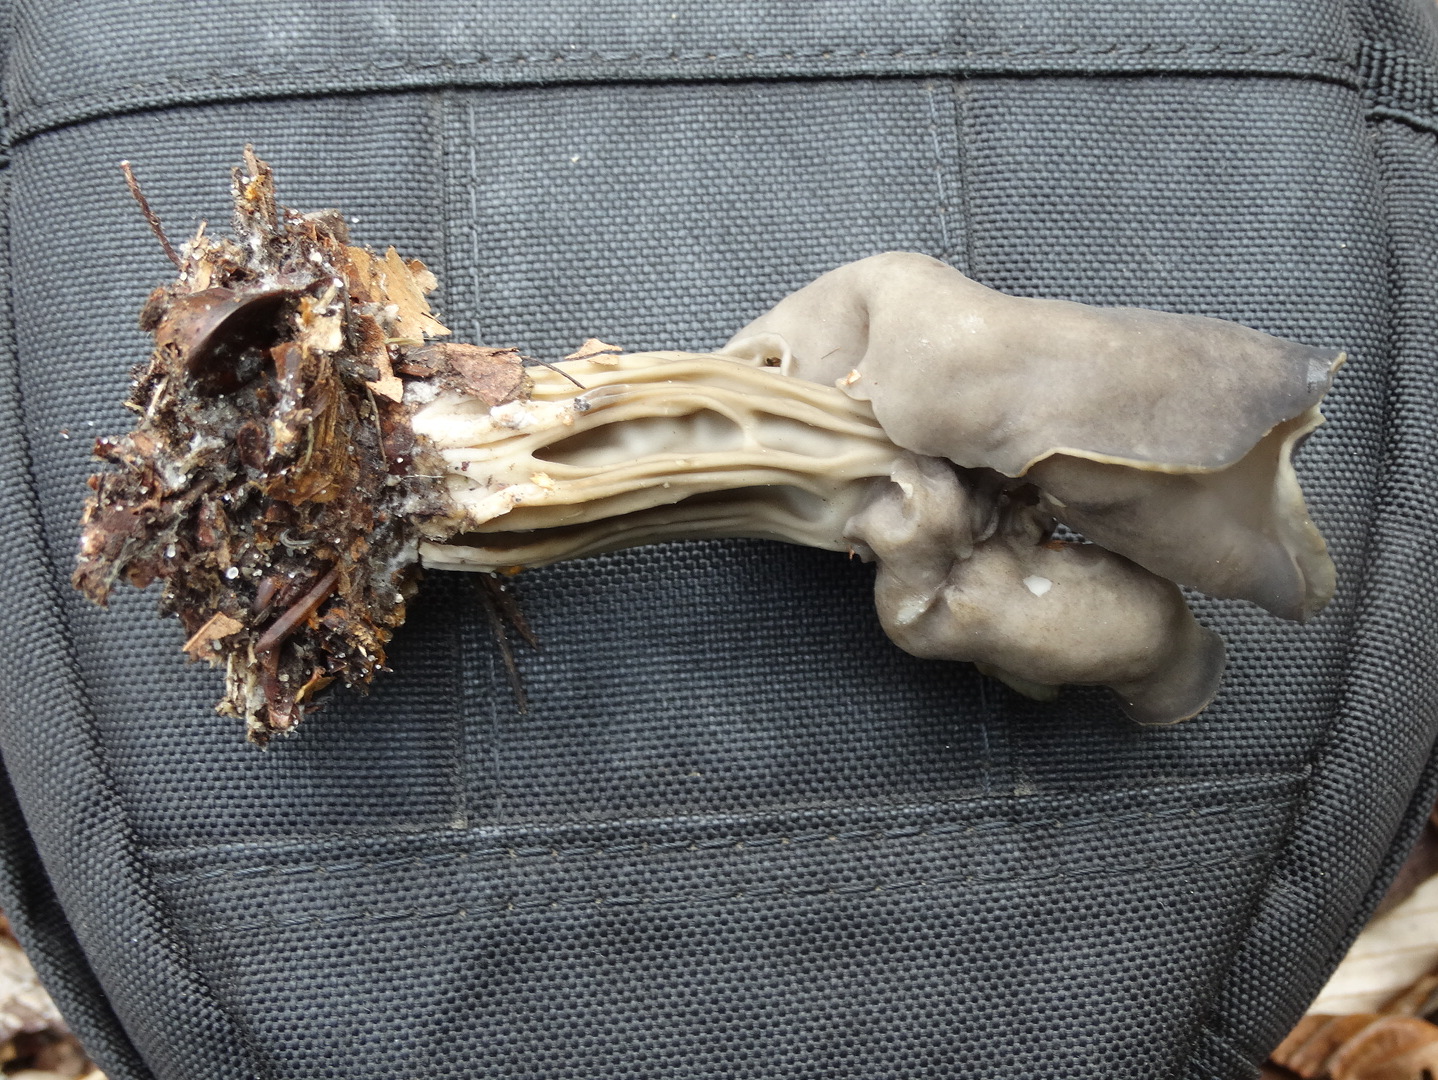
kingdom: Fungi
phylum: Ascomycota
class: Pezizomycetes
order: Pezizales
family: Helvellaceae
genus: Helvella
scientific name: Helvella lacunosa
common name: grubet foldhat
